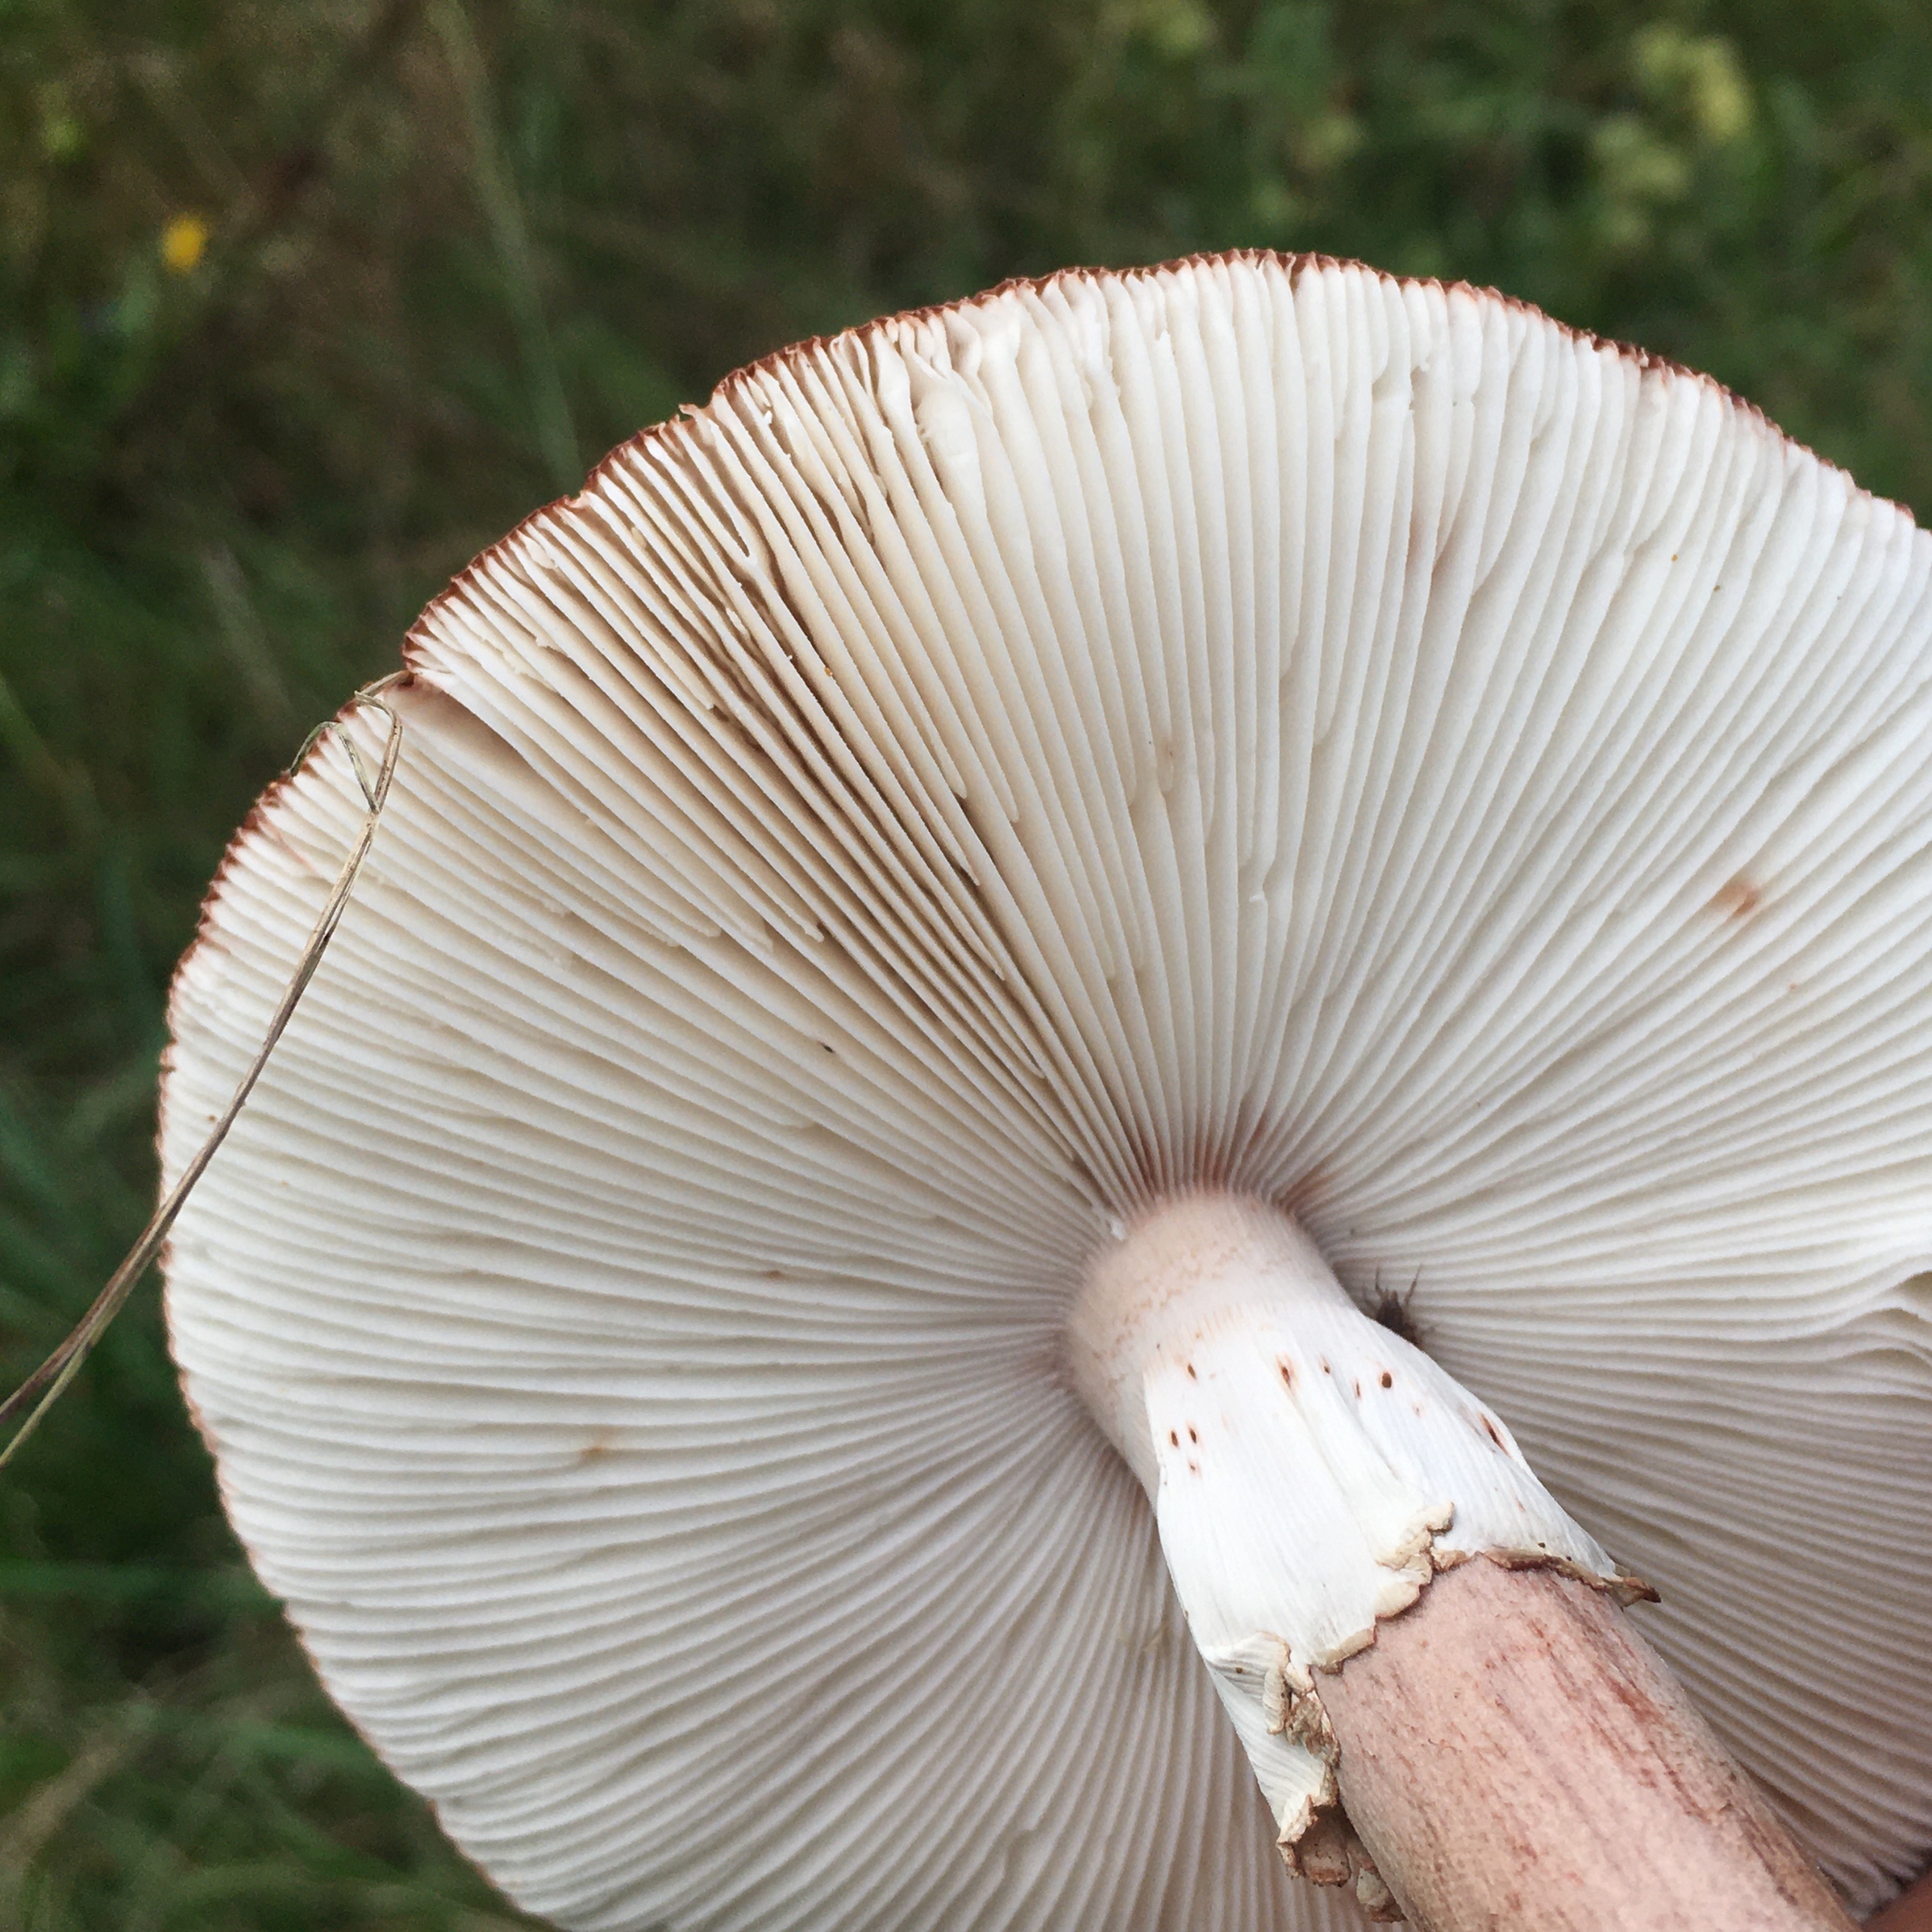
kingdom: Fungi
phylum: Basidiomycota
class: Agaricomycetes
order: Agaricales
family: Amanitaceae
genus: Amanita
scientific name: Amanita rubescens
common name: Rødmende fluesvamp
